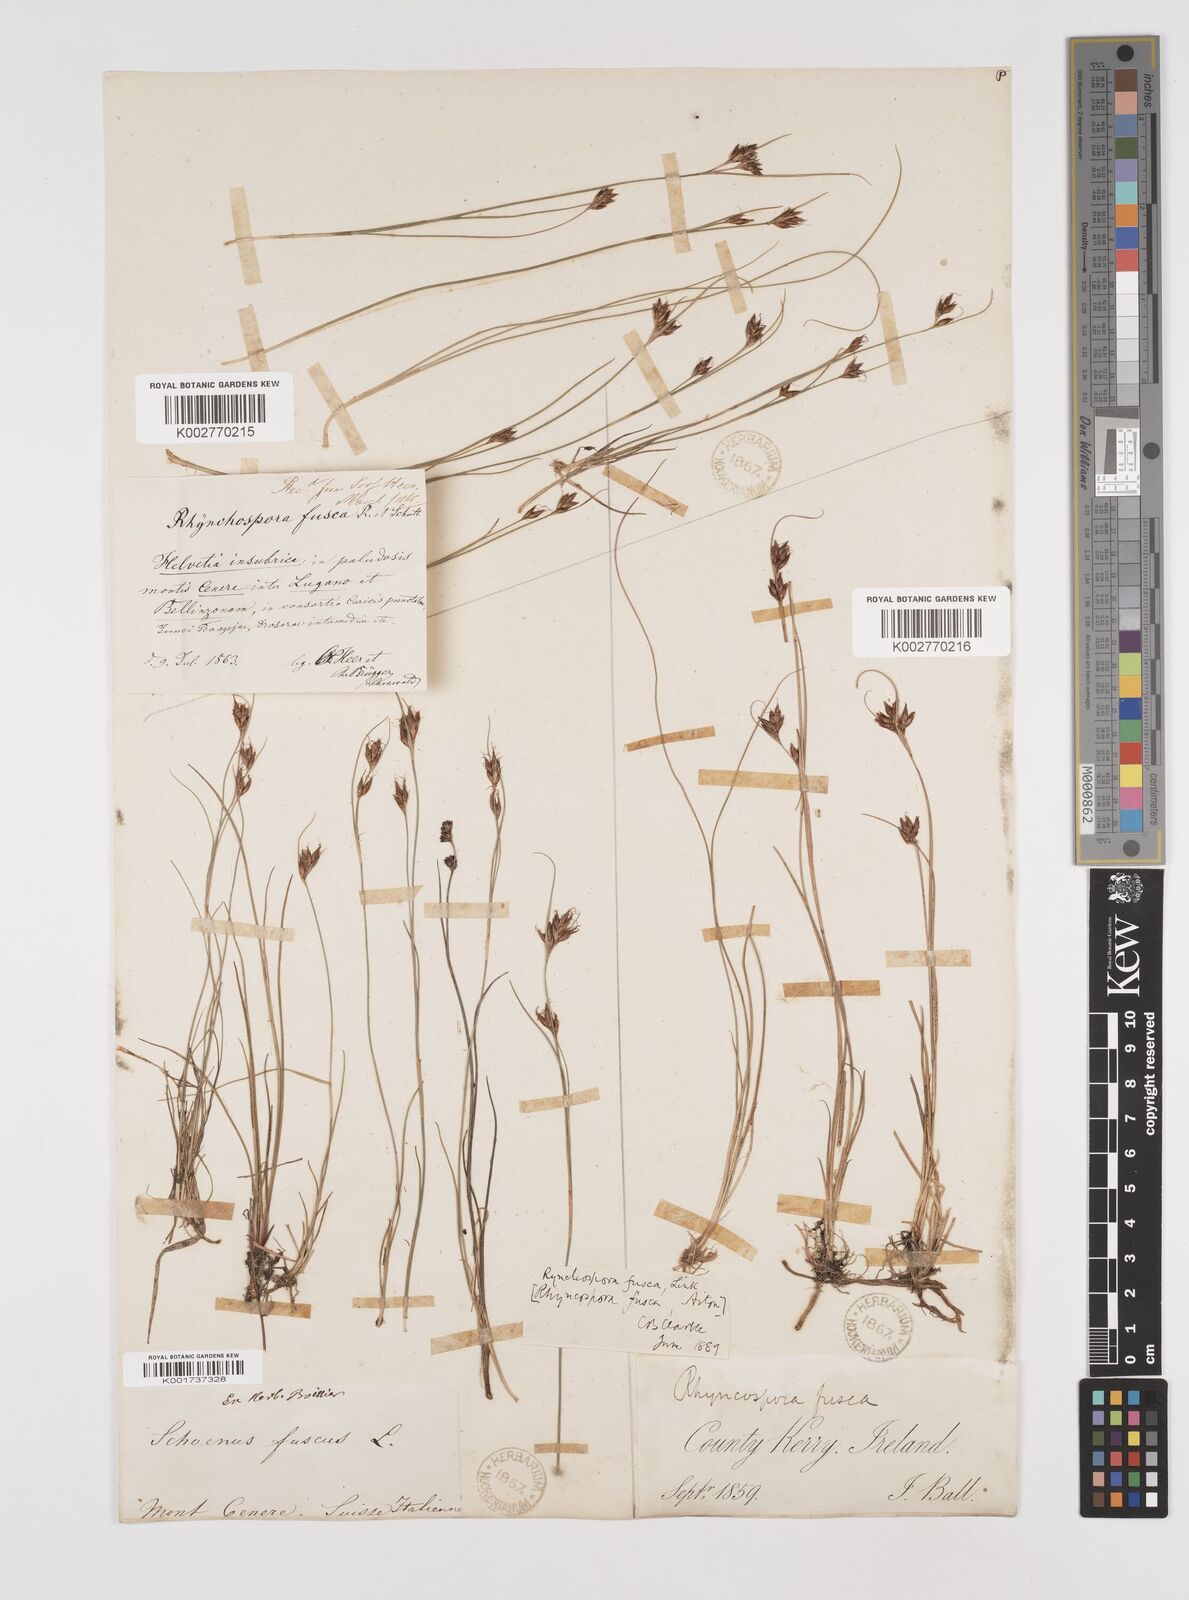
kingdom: Plantae
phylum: Tracheophyta
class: Liliopsida
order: Poales
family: Cyperaceae
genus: Rhynchospora
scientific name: Rhynchospora fusca
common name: Brown beak-sedge
